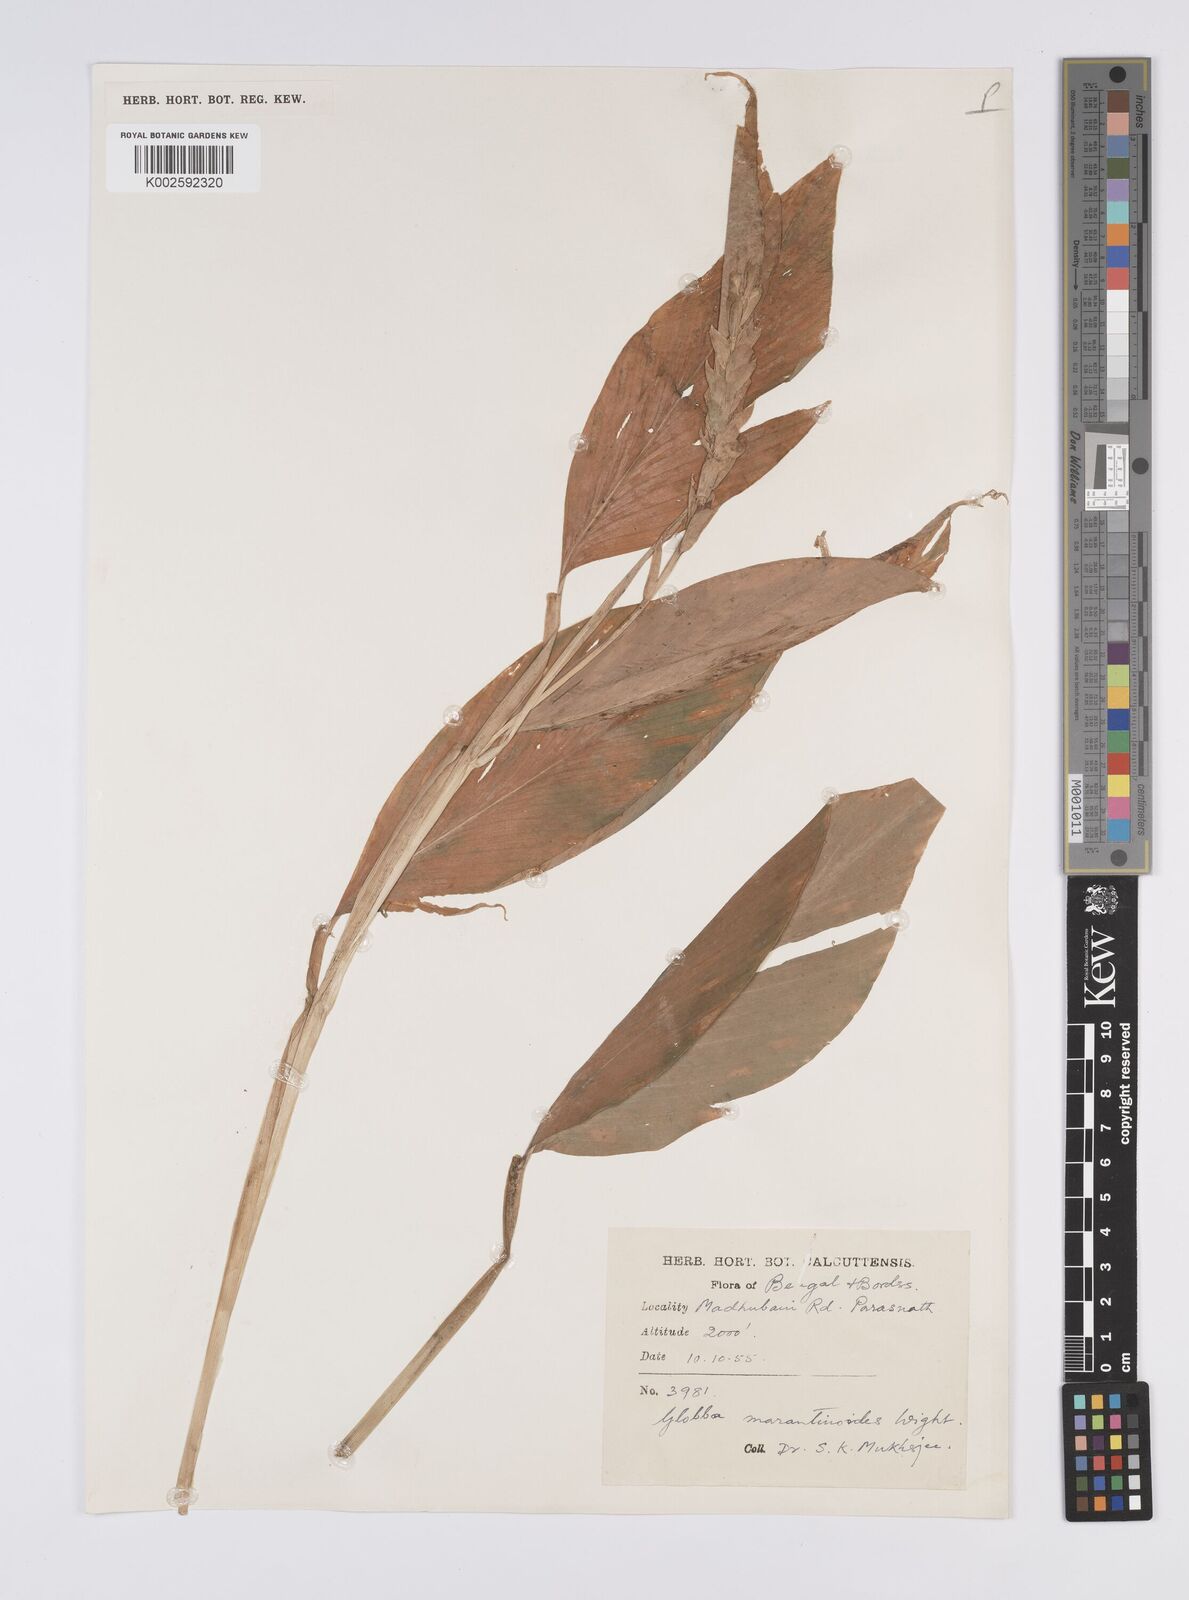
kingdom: Plantae
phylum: Tracheophyta
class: Liliopsida
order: Zingiberales
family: Zingiberaceae
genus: Globba
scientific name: Globba marantina
